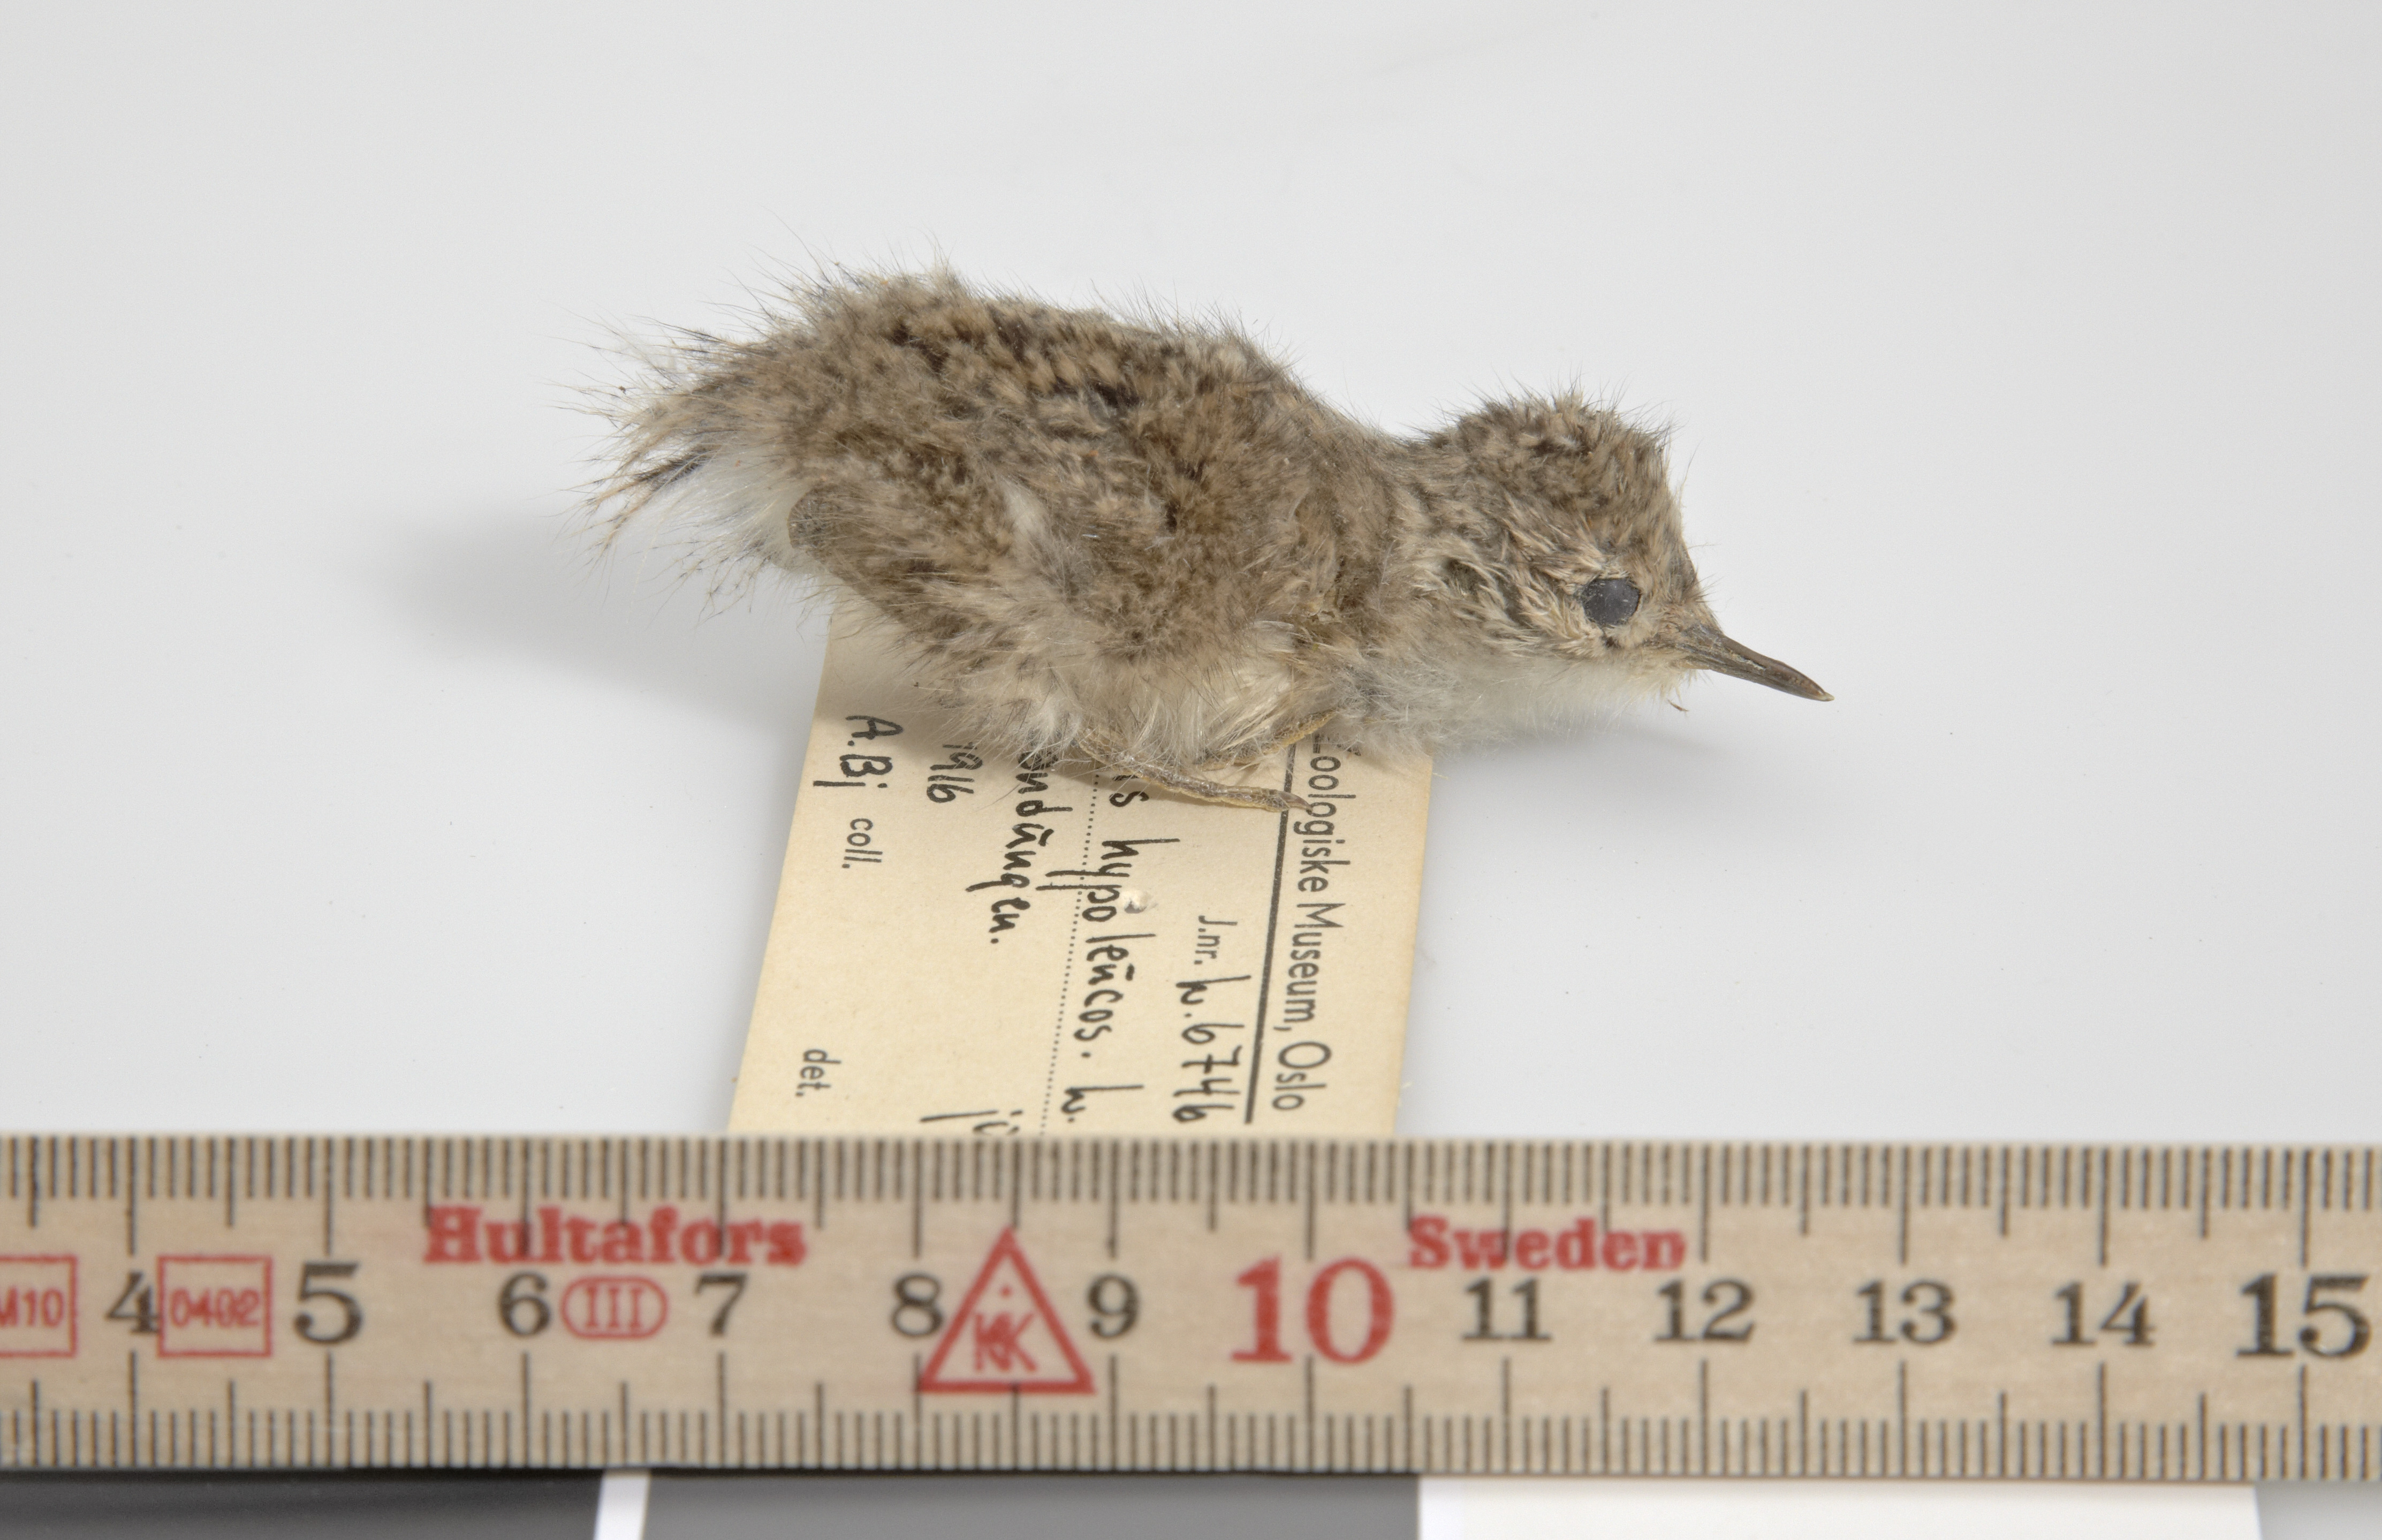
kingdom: Animalia
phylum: Chordata
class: Aves
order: Charadriiformes
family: Scolopacidae
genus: Actitis
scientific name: Actitis hypoleucos
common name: Common sandpiper
